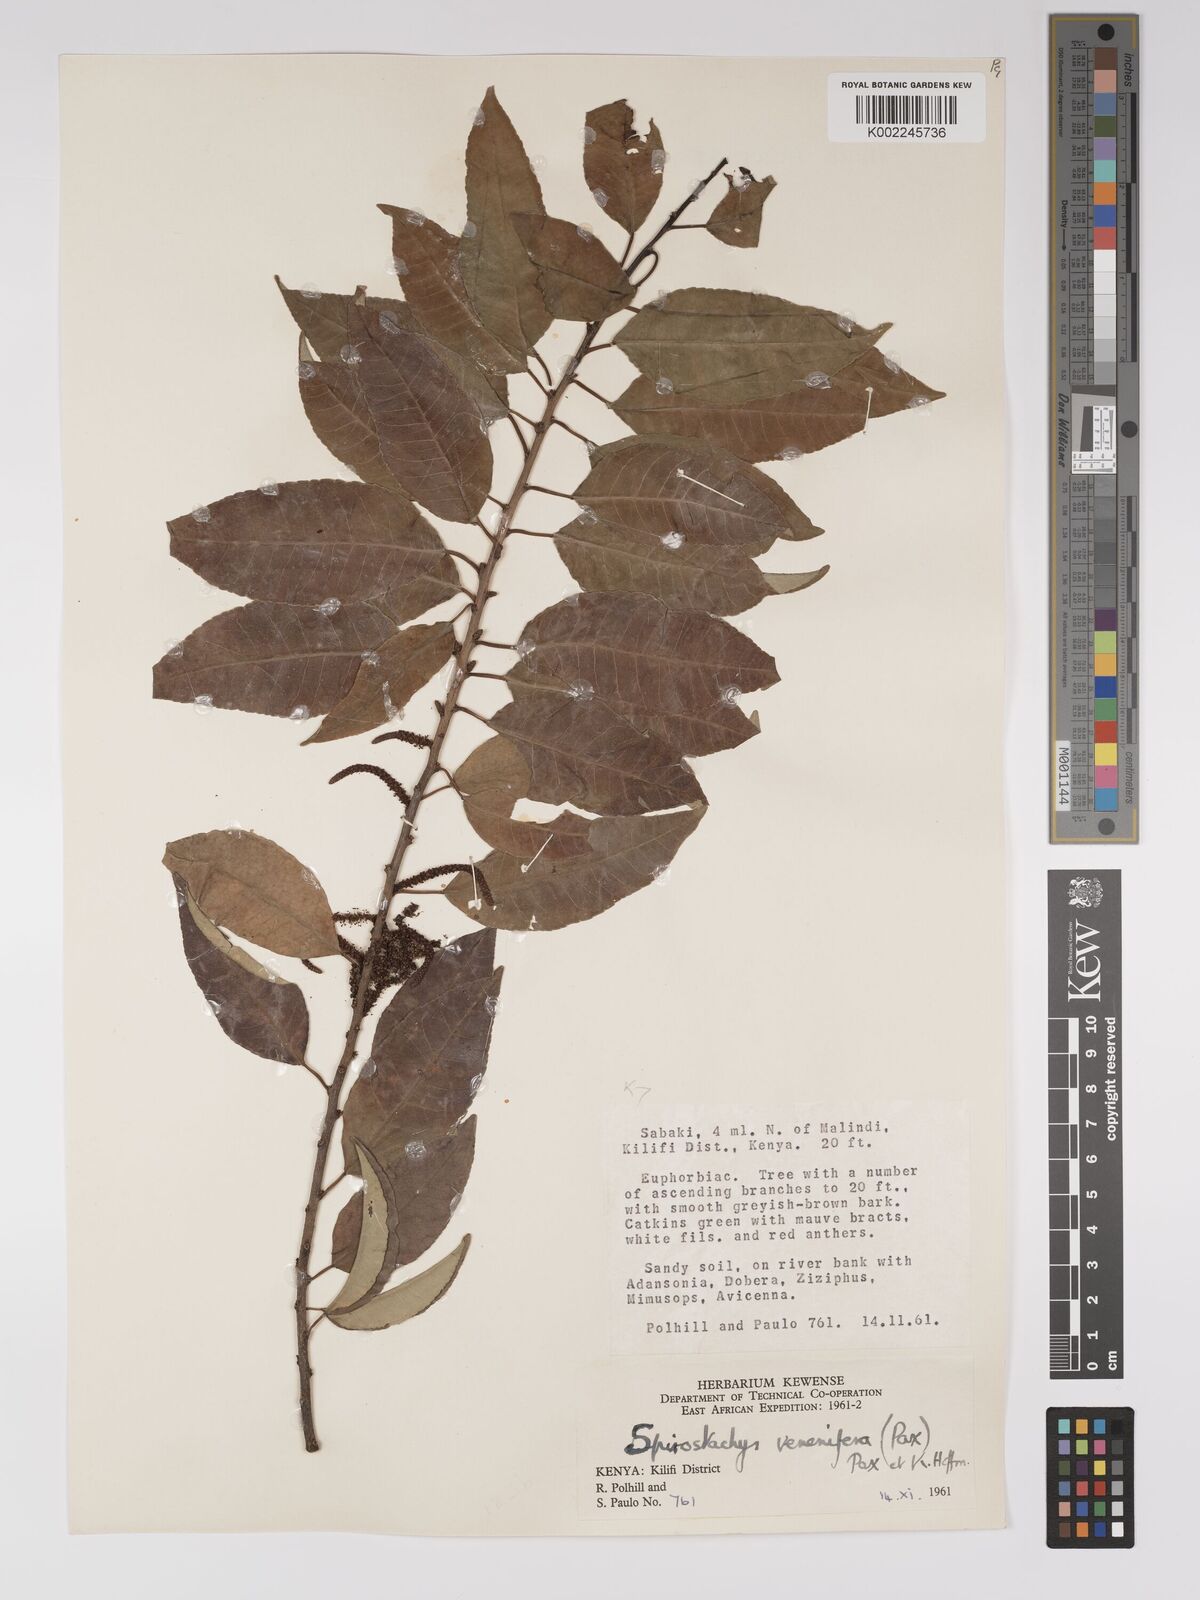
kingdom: Plantae
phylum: Tracheophyta
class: Magnoliopsida
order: Malpighiales
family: Euphorbiaceae
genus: Spirostachys
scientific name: Spirostachys venenifera
